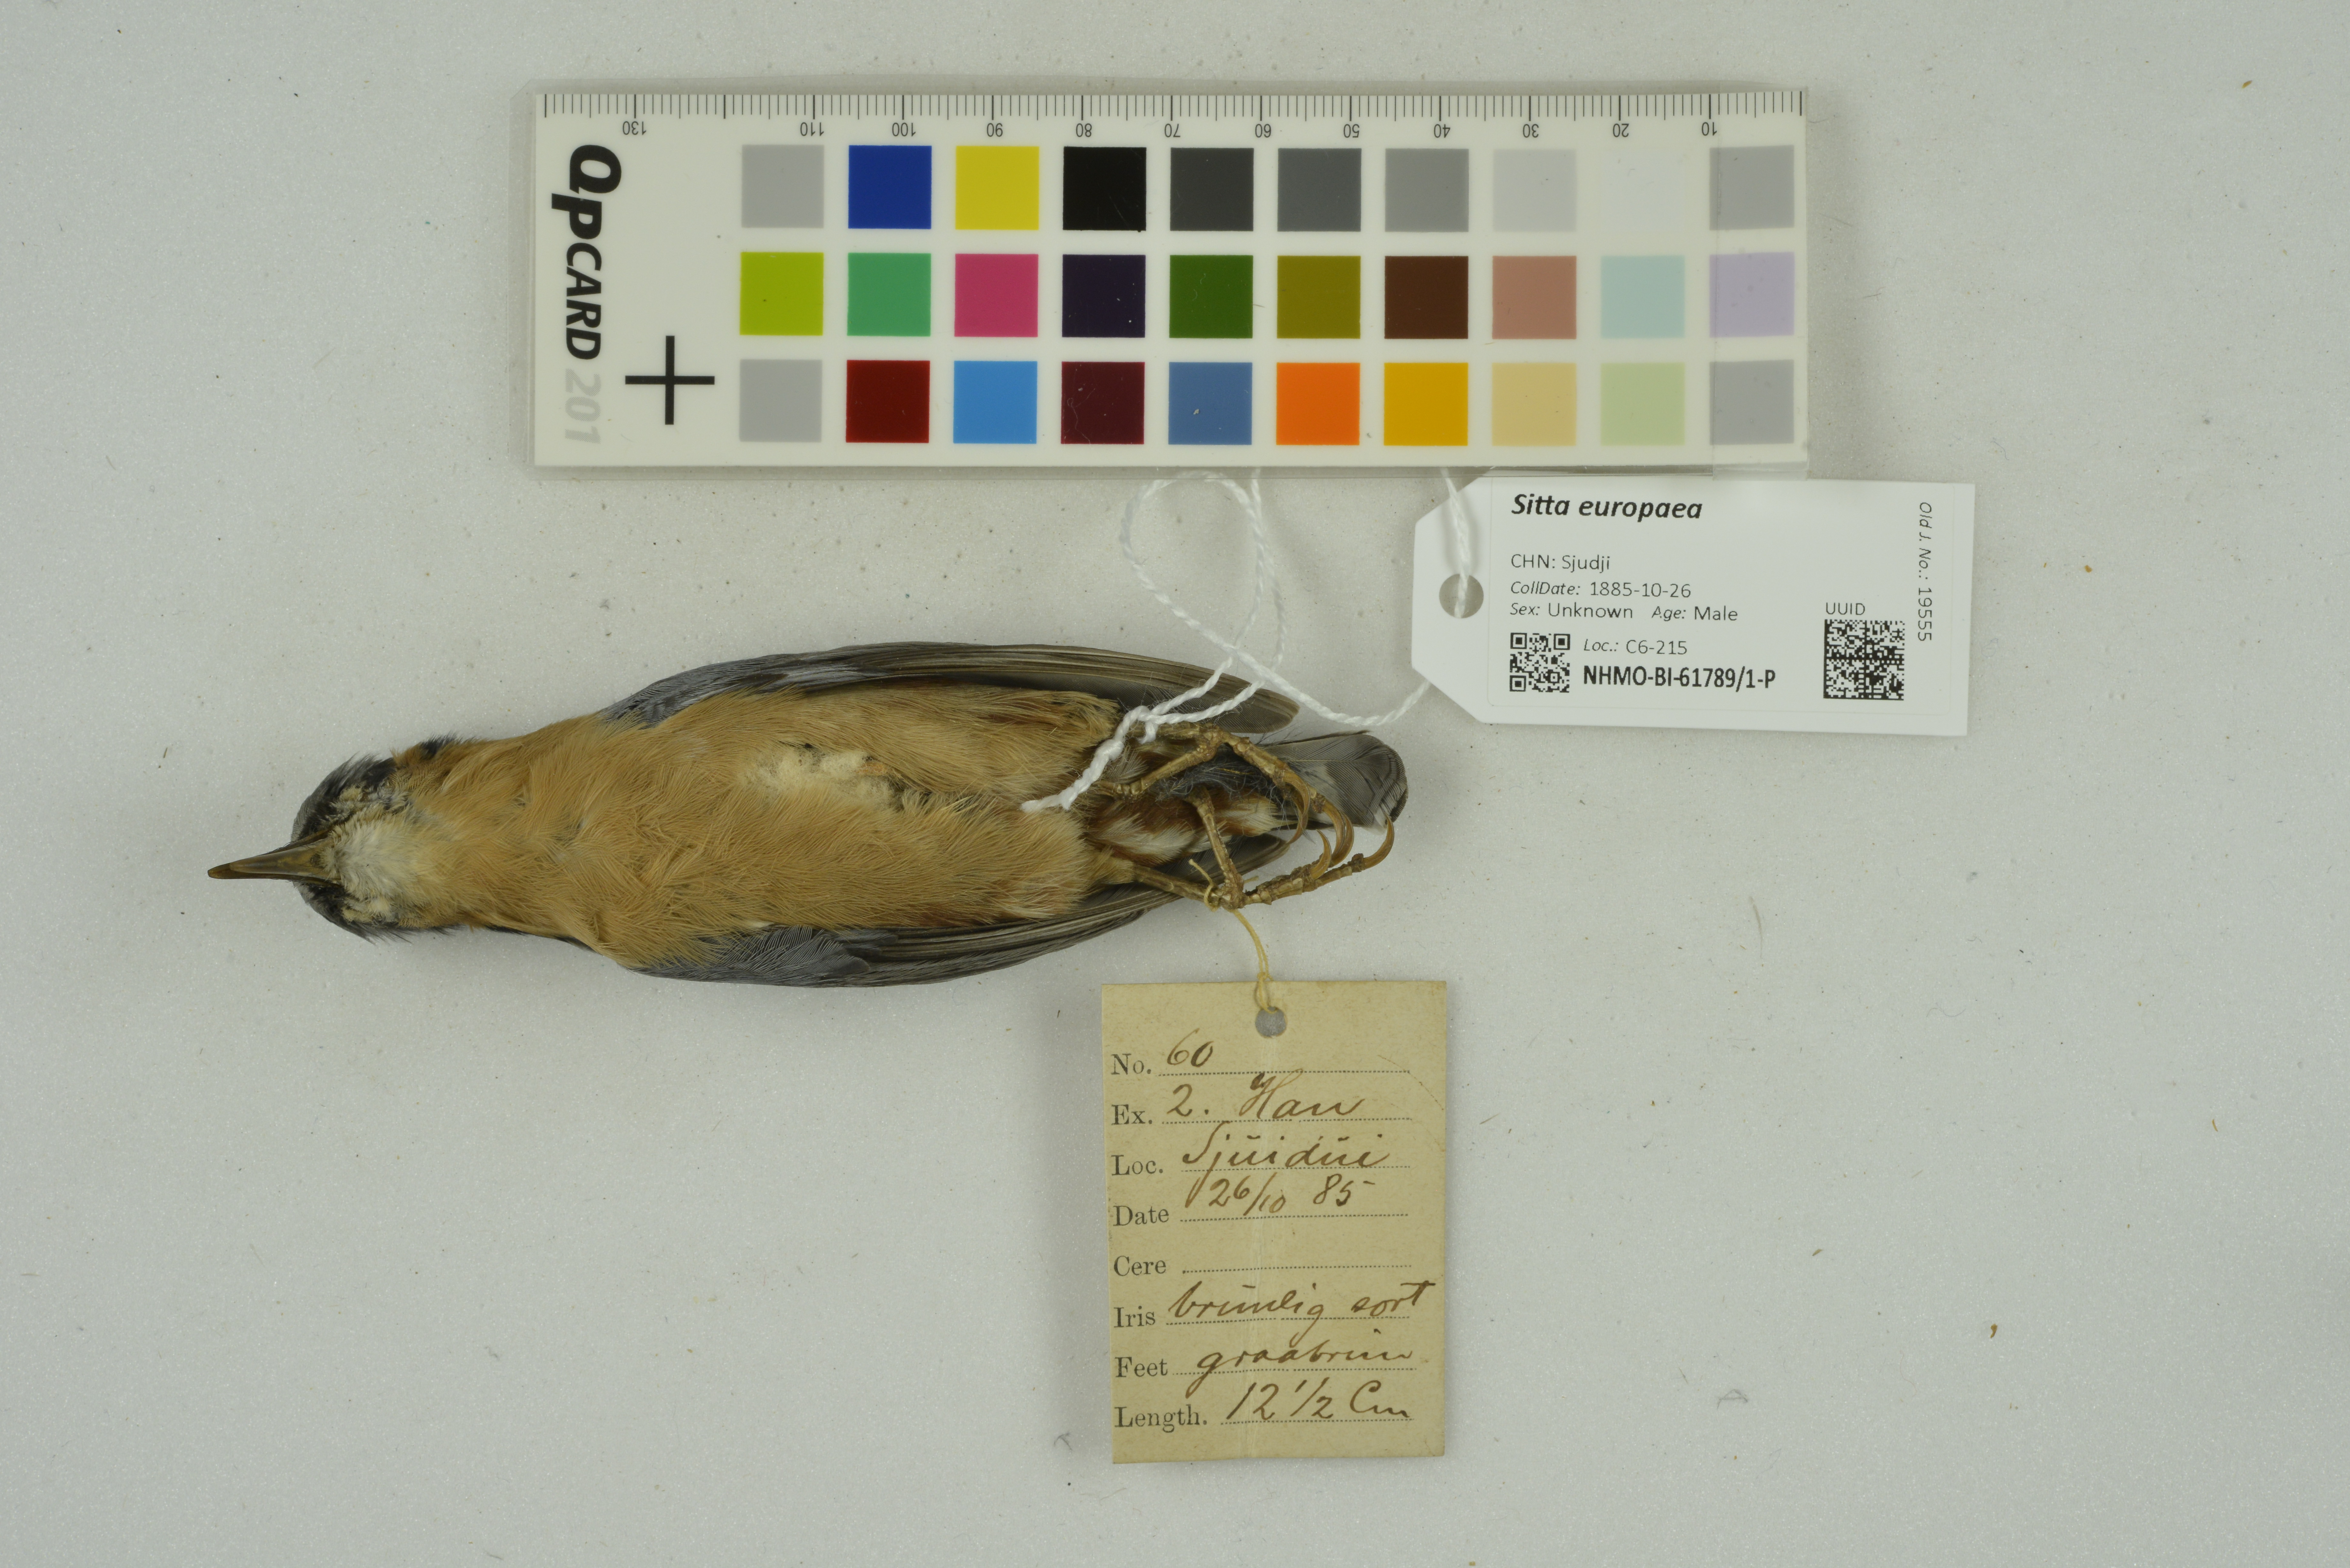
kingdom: Animalia
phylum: Chordata
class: Aves
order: Passeriformes
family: Sittidae
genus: Sitta
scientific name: Sitta europaea
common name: Eurasian nuthatch
